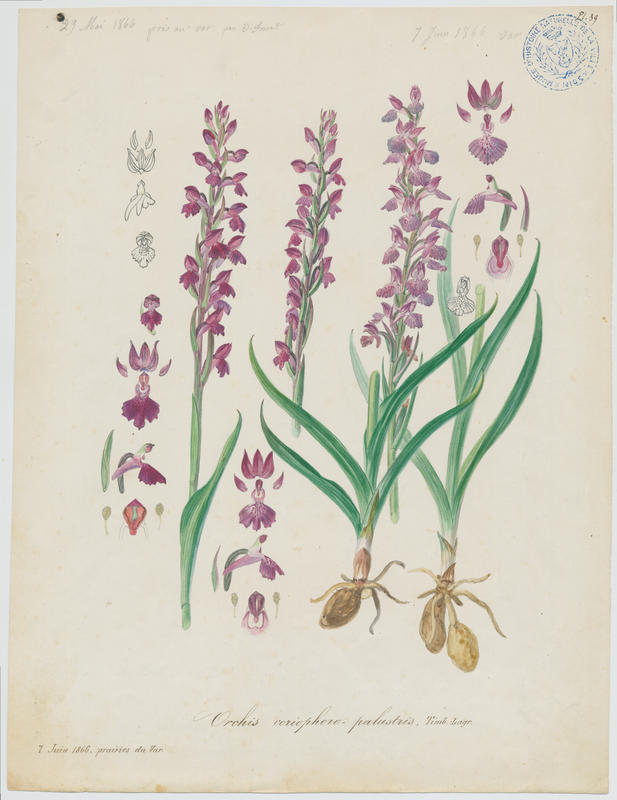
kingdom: Plantae
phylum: Tracheophyta
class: Liliopsida
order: Asparagales
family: Orchidaceae
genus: Anacamptis
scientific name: Anacamptis timbali
